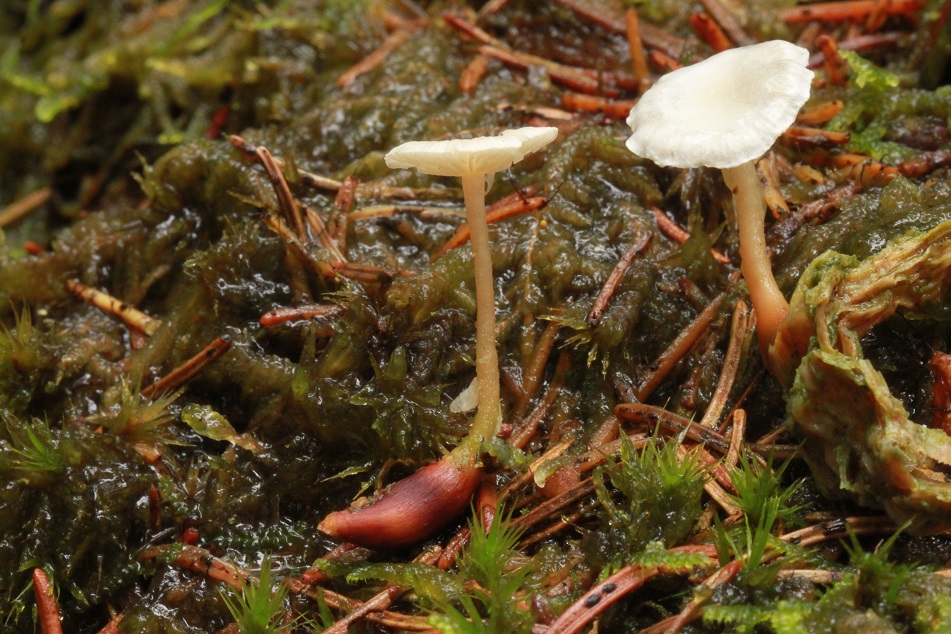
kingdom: Fungi
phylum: Basidiomycota
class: Agaricomycetes
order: Agaricales
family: Tricholomataceae
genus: Collybia
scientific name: Collybia tuberosa
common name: spidsknoldet lighat
